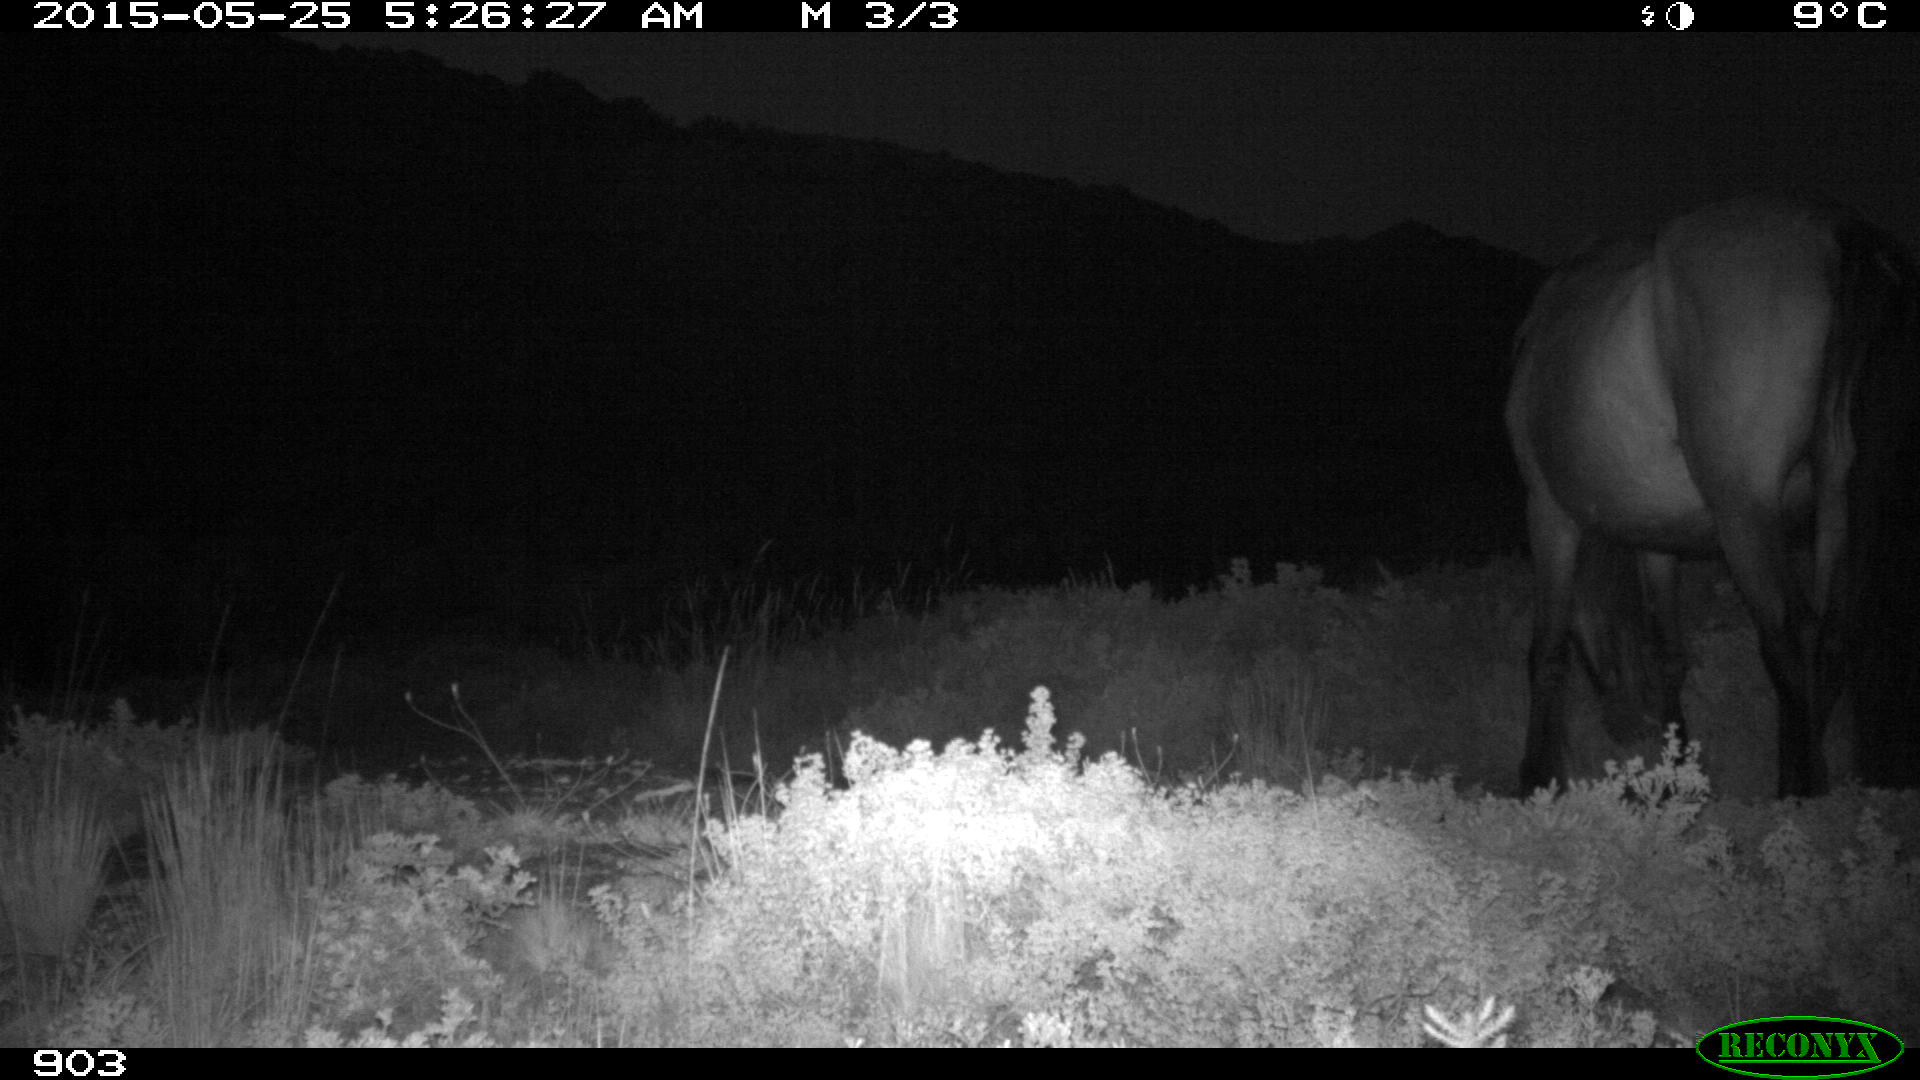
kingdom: Animalia
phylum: Chordata
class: Mammalia
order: Perissodactyla
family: Equidae
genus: Equus
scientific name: Equus caballus
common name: Horse
